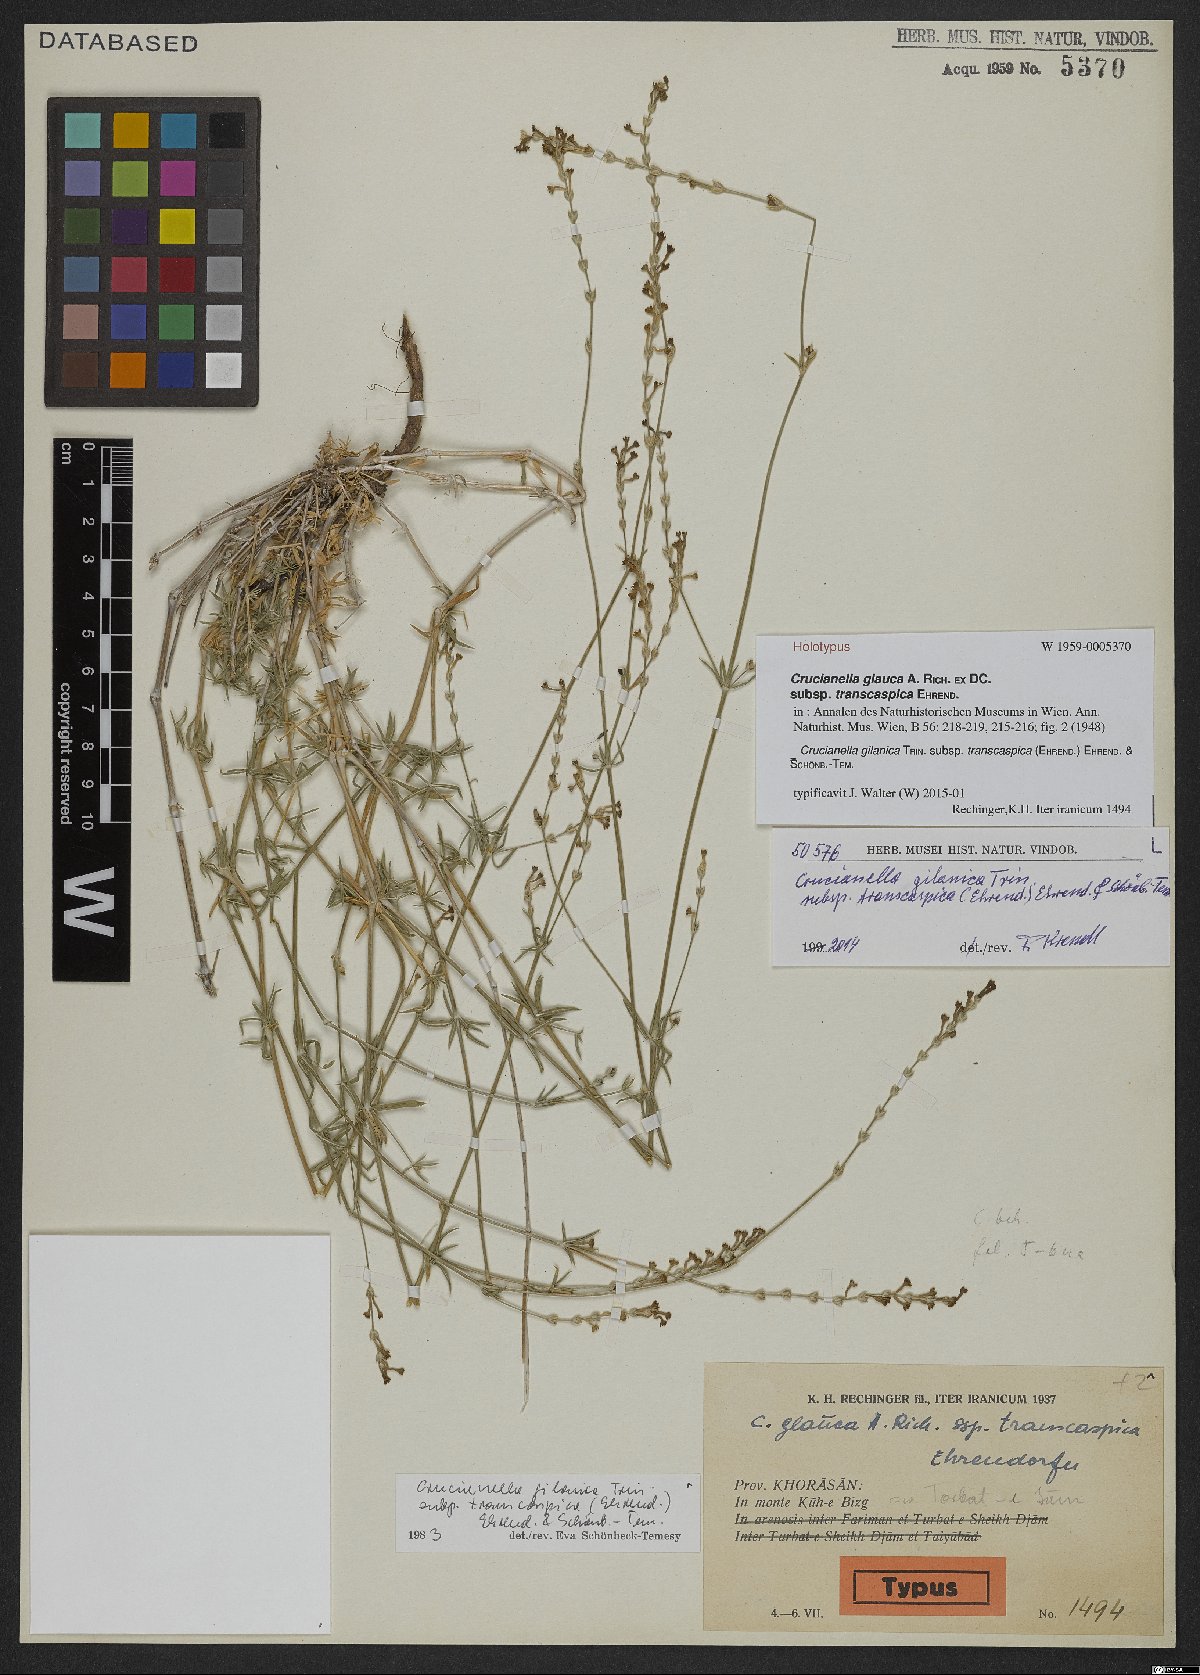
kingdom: Plantae
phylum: Tracheophyta
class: Magnoliopsida
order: Gentianales
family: Rubiaceae
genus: Crucianella
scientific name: Crucianella gilanica
